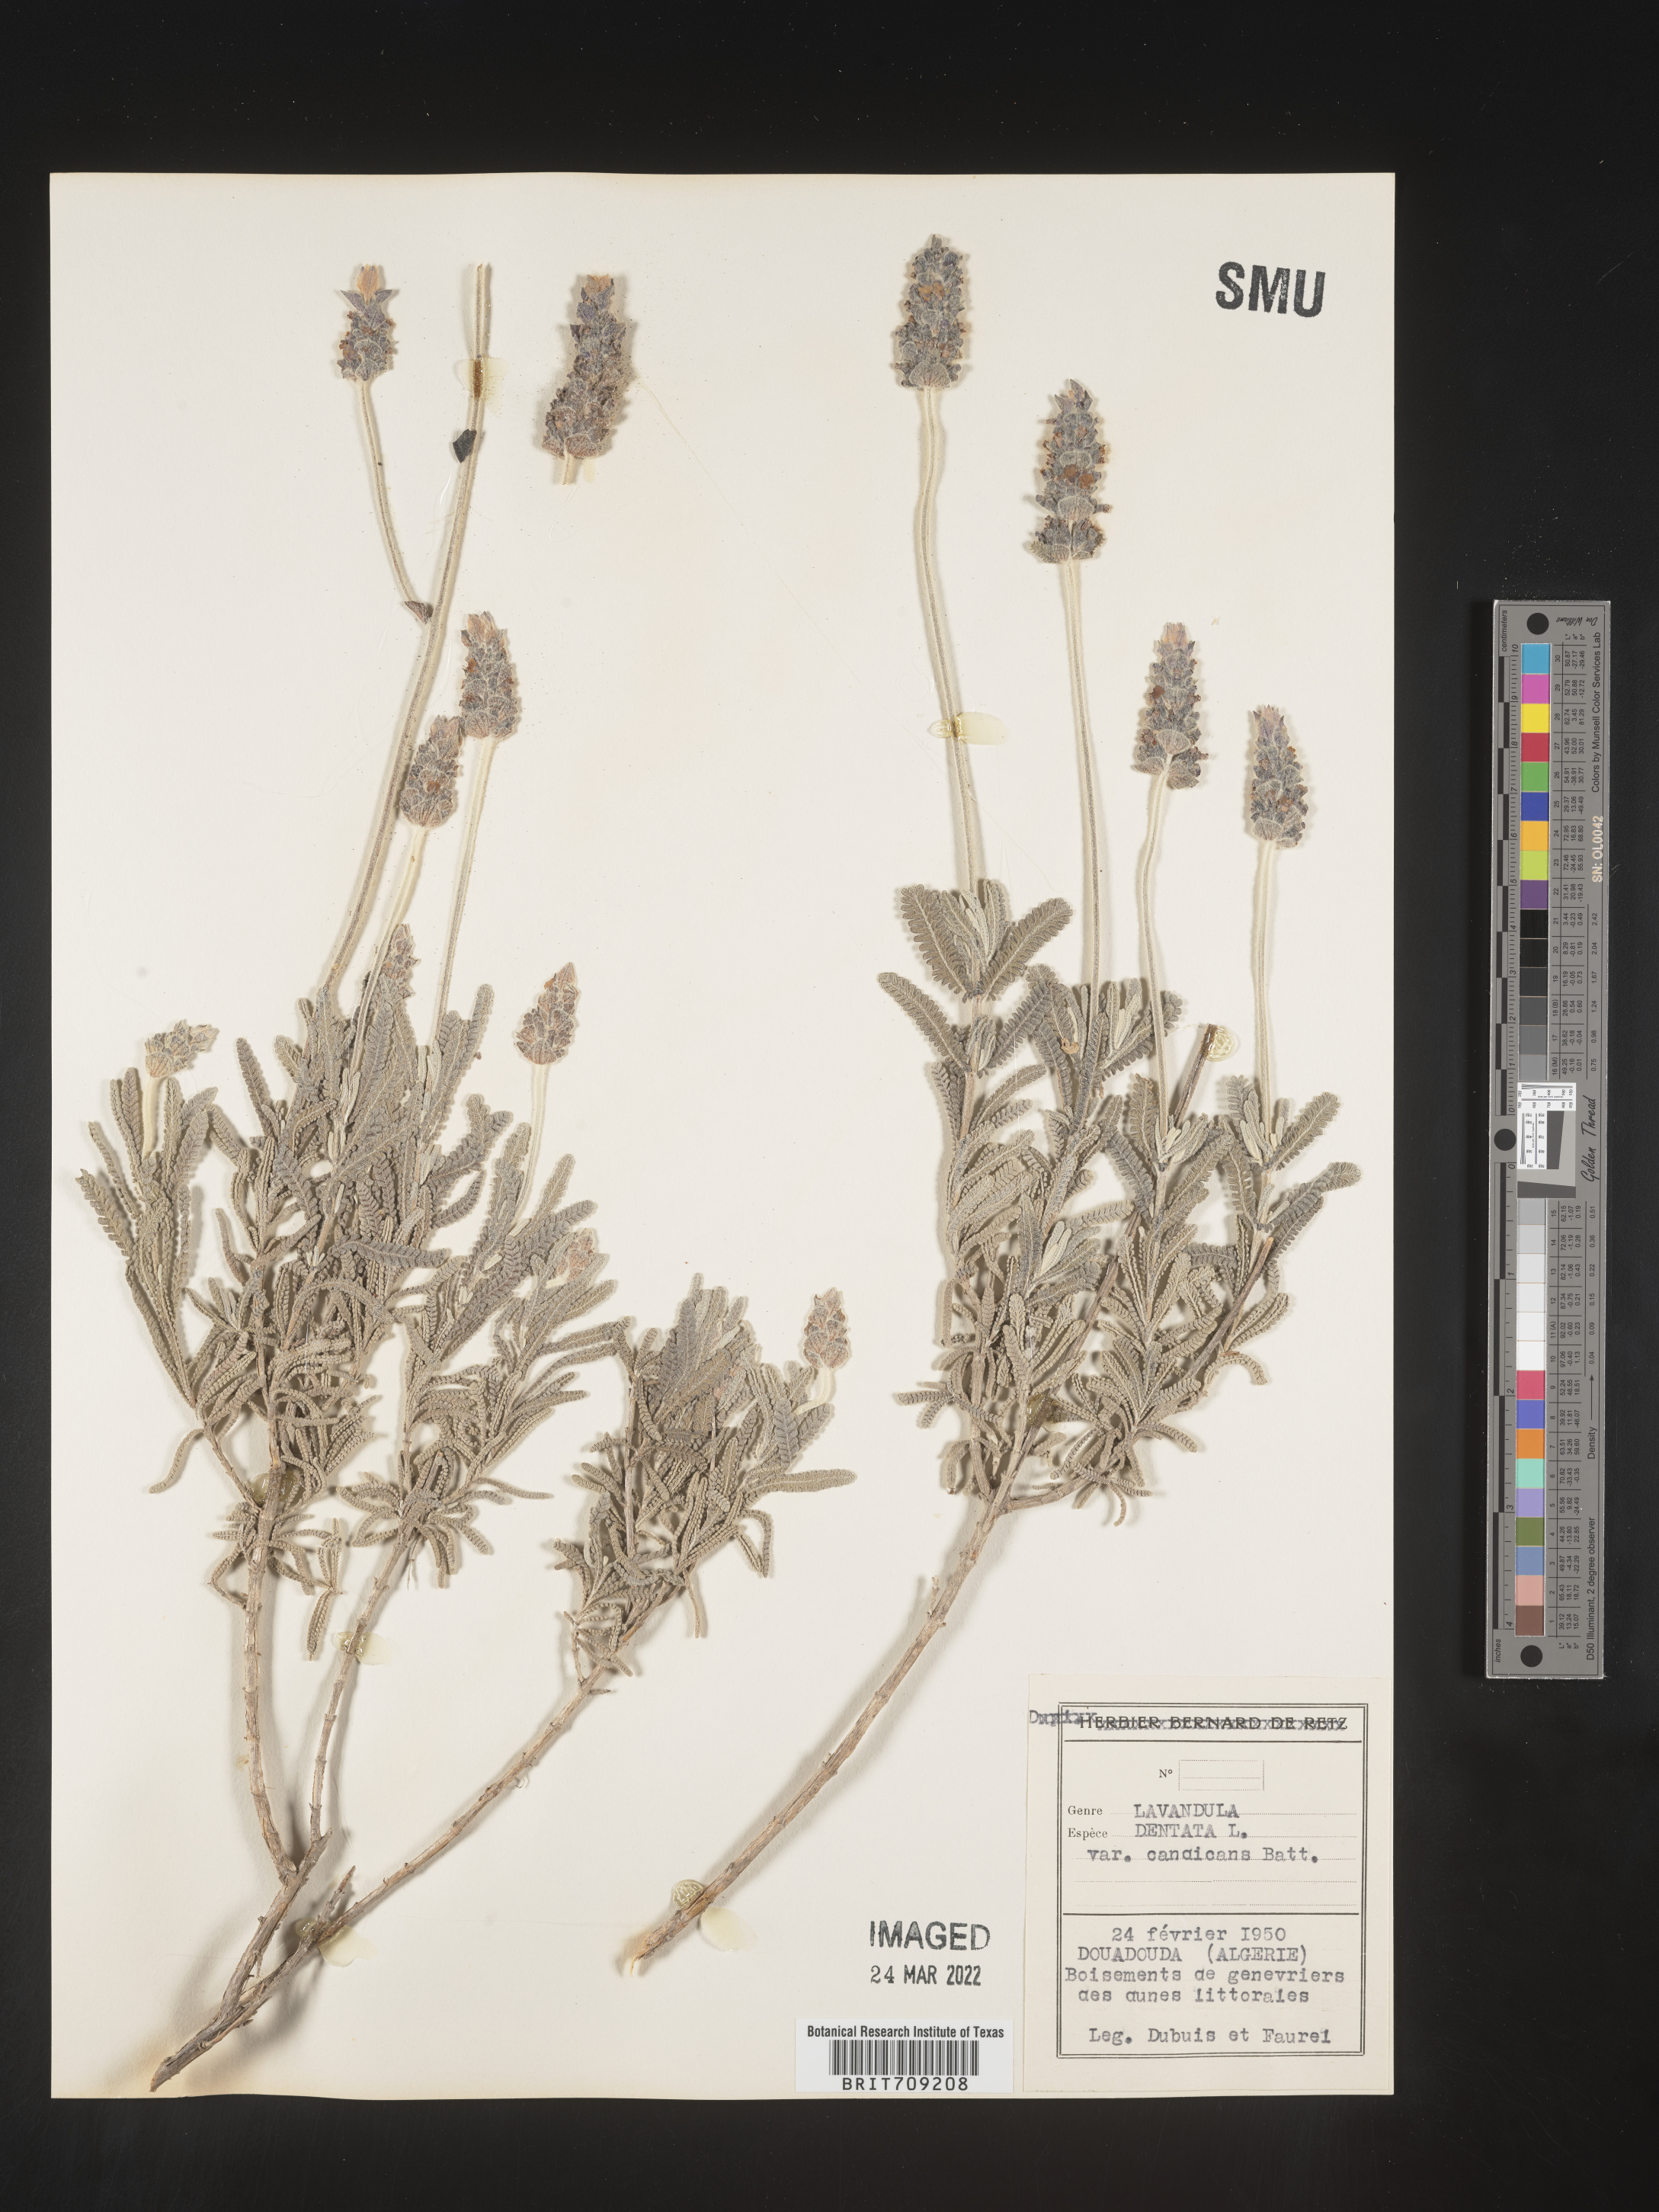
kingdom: Plantae
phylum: Tracheophyta
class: Magnoliopsida
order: Lamiales
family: Lamiaceae
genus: Lavandula
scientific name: Lavandula
